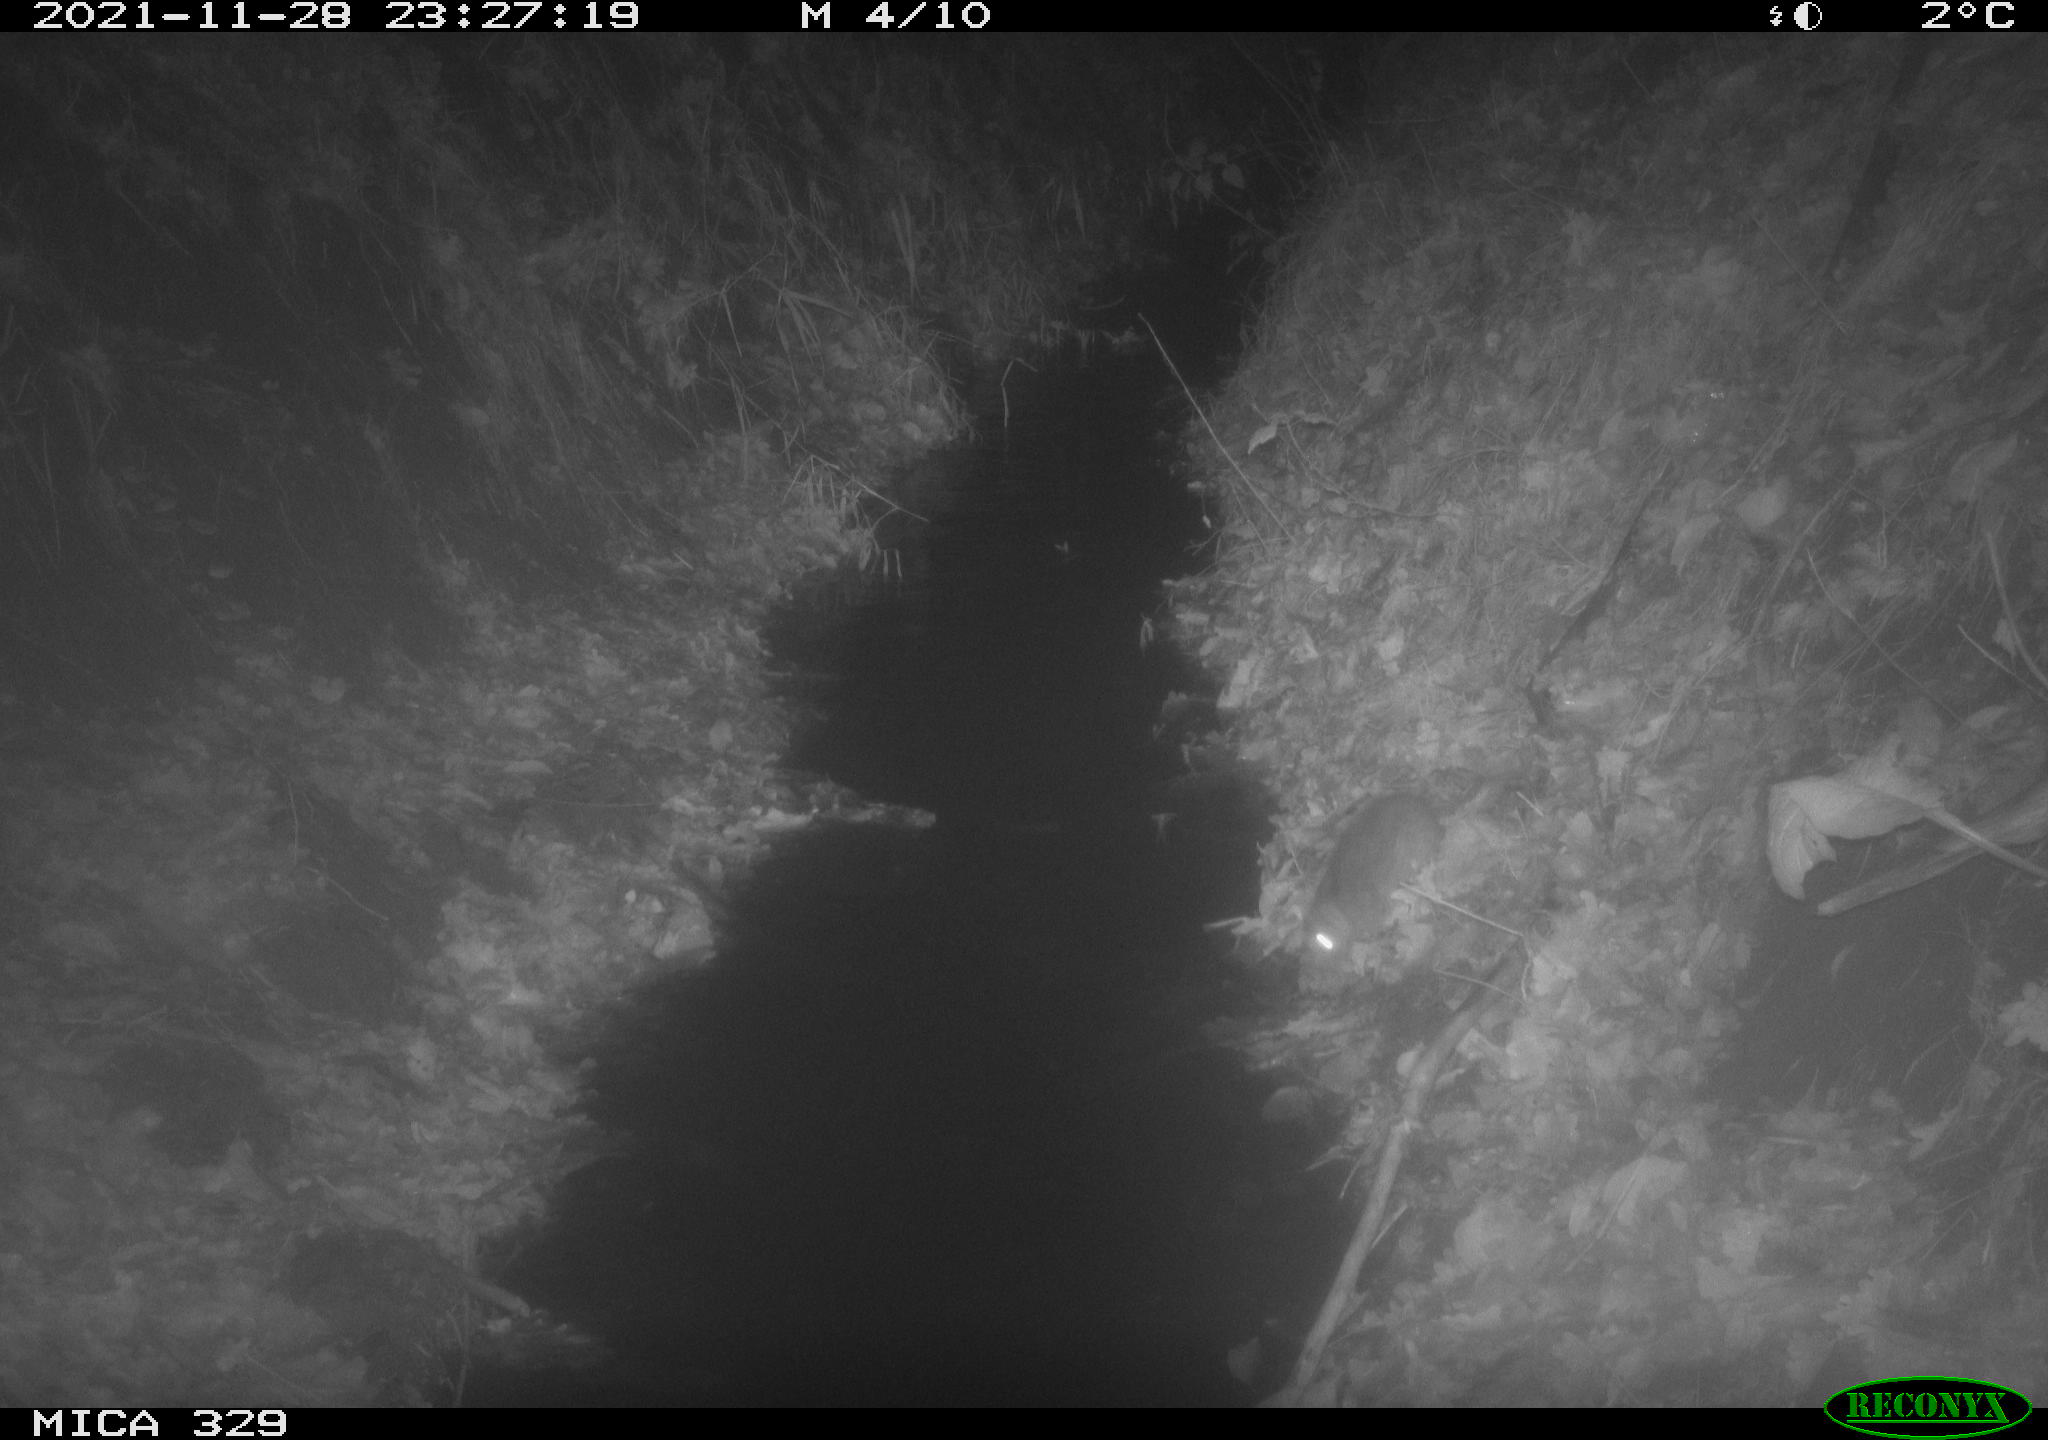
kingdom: Animalia
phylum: Chordata
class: Mammalia
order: Rodentia
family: Muridae
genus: Rattus
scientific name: Rattus norvegicus
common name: Brown rat
